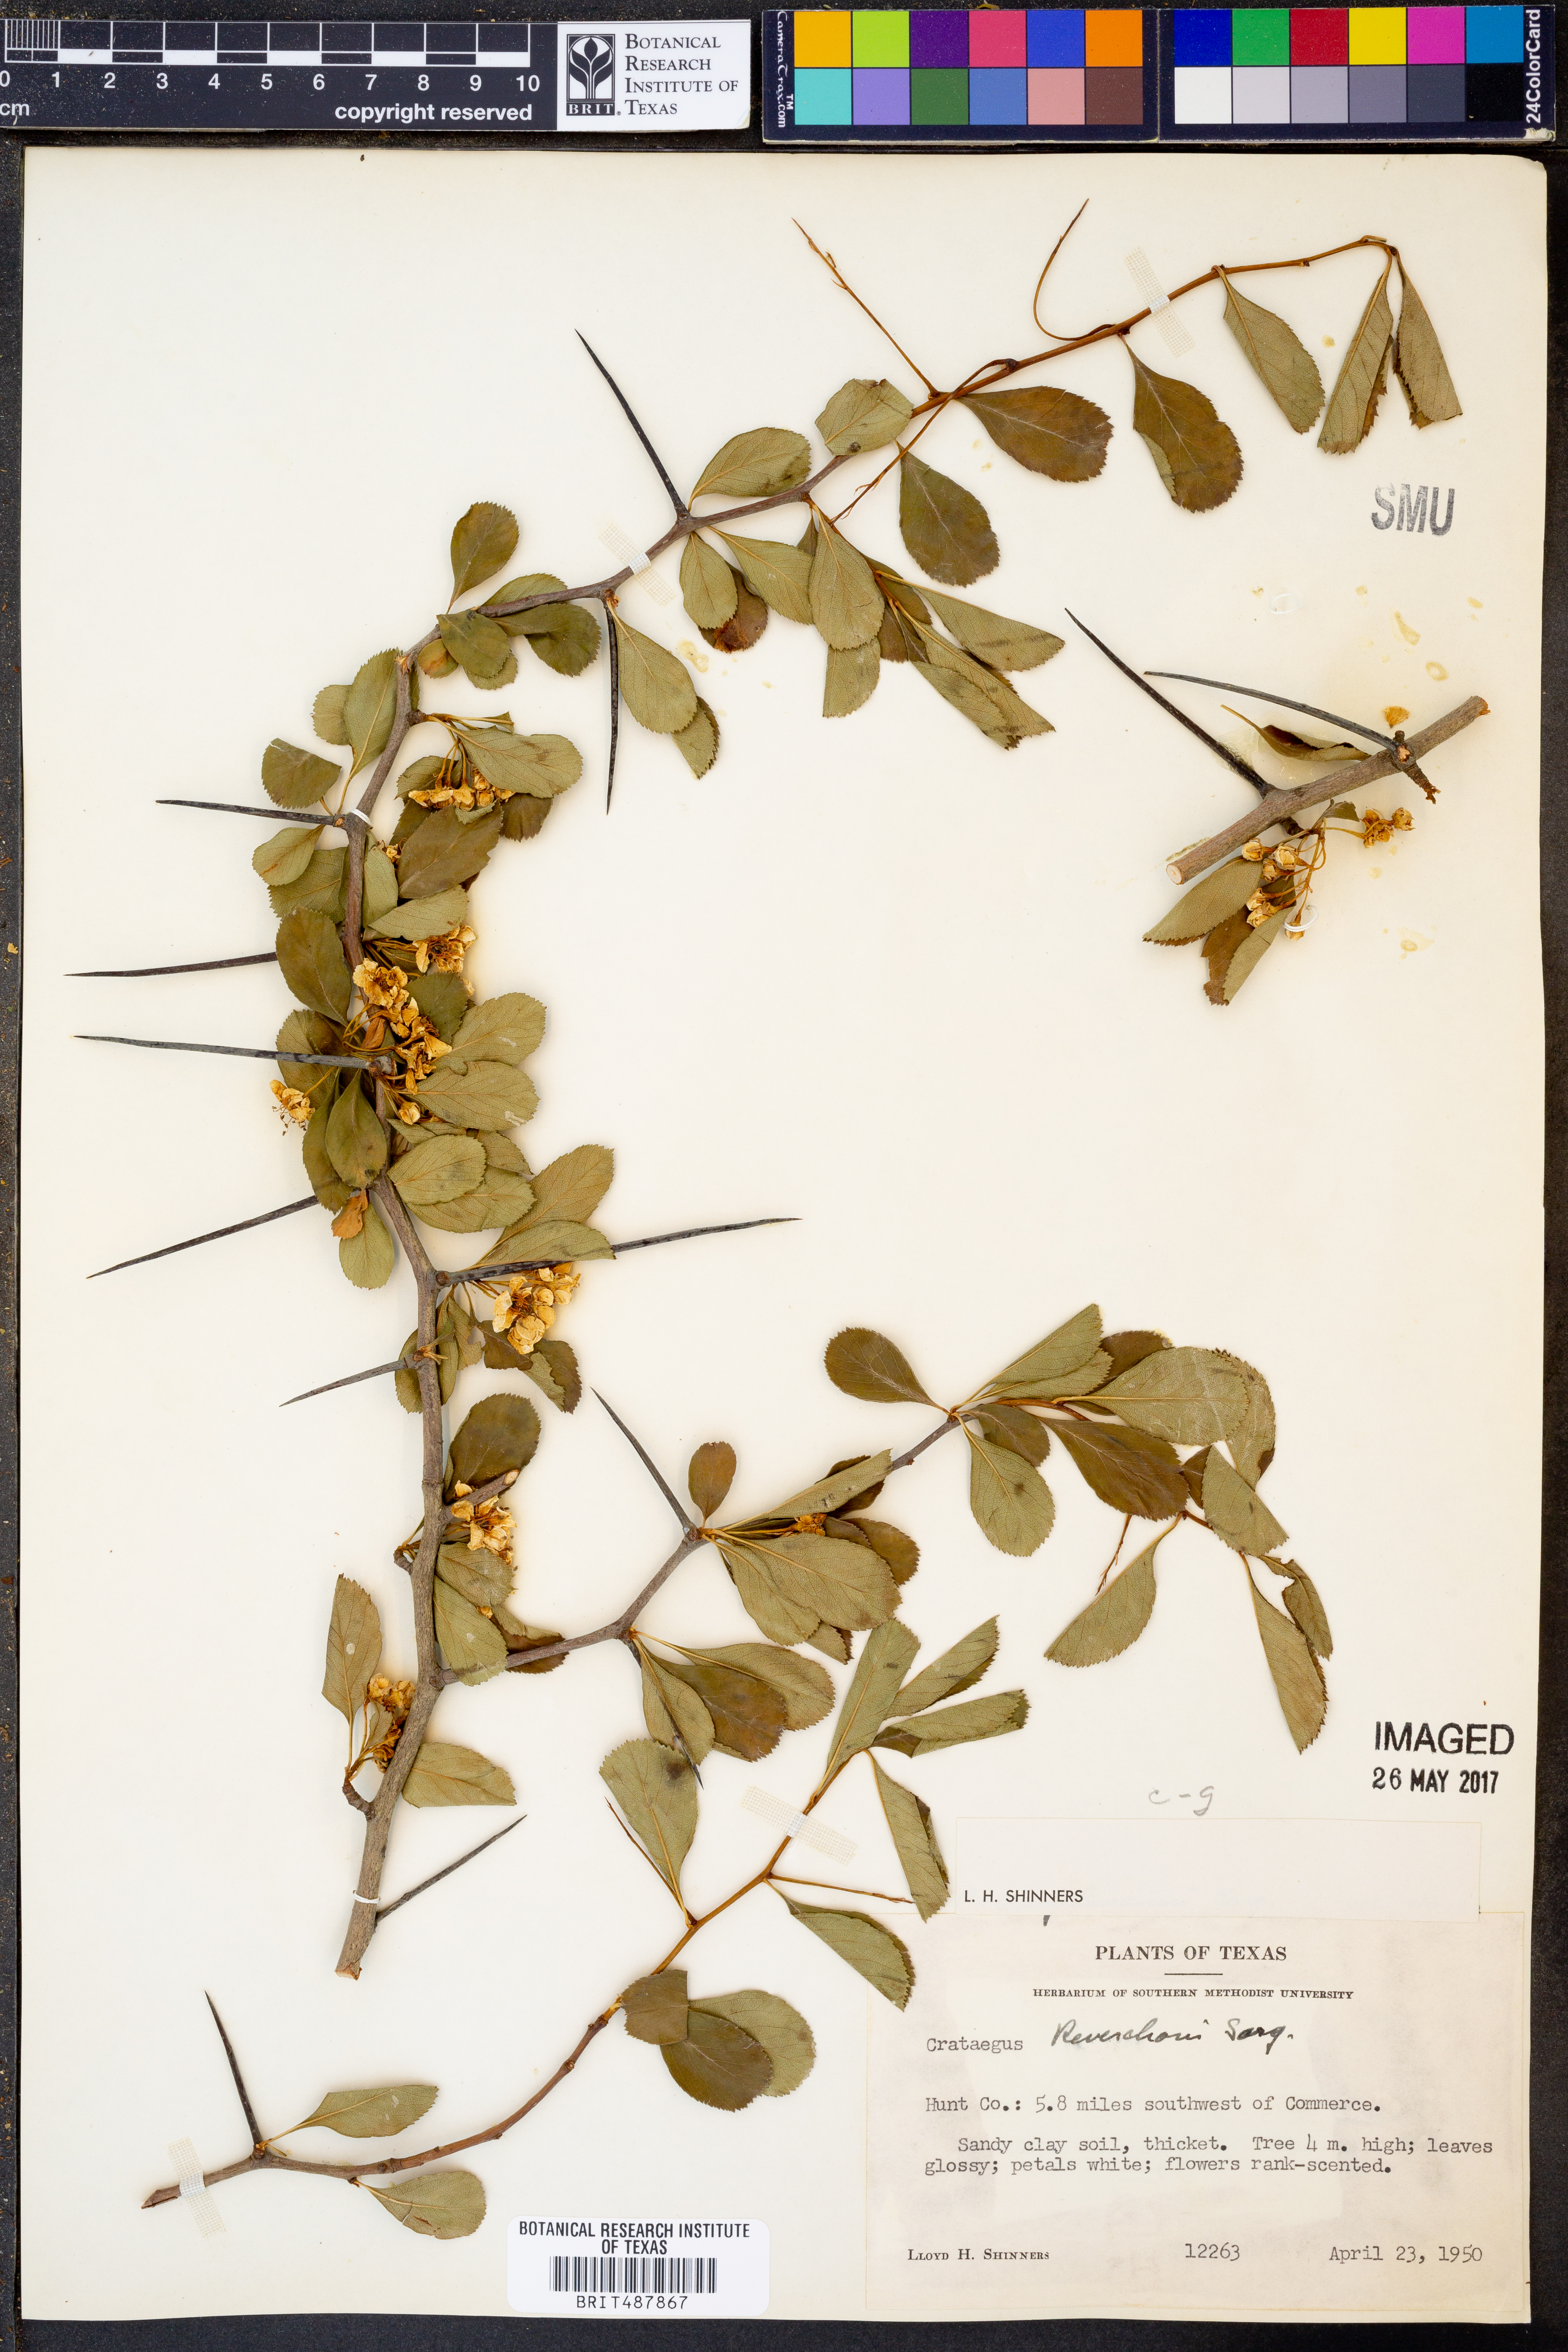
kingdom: Plantae
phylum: Tracheophyta
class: Magnoliopsida
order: Rosales
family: Rosaceae
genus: Crataegus
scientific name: Crataegus reverchonii
